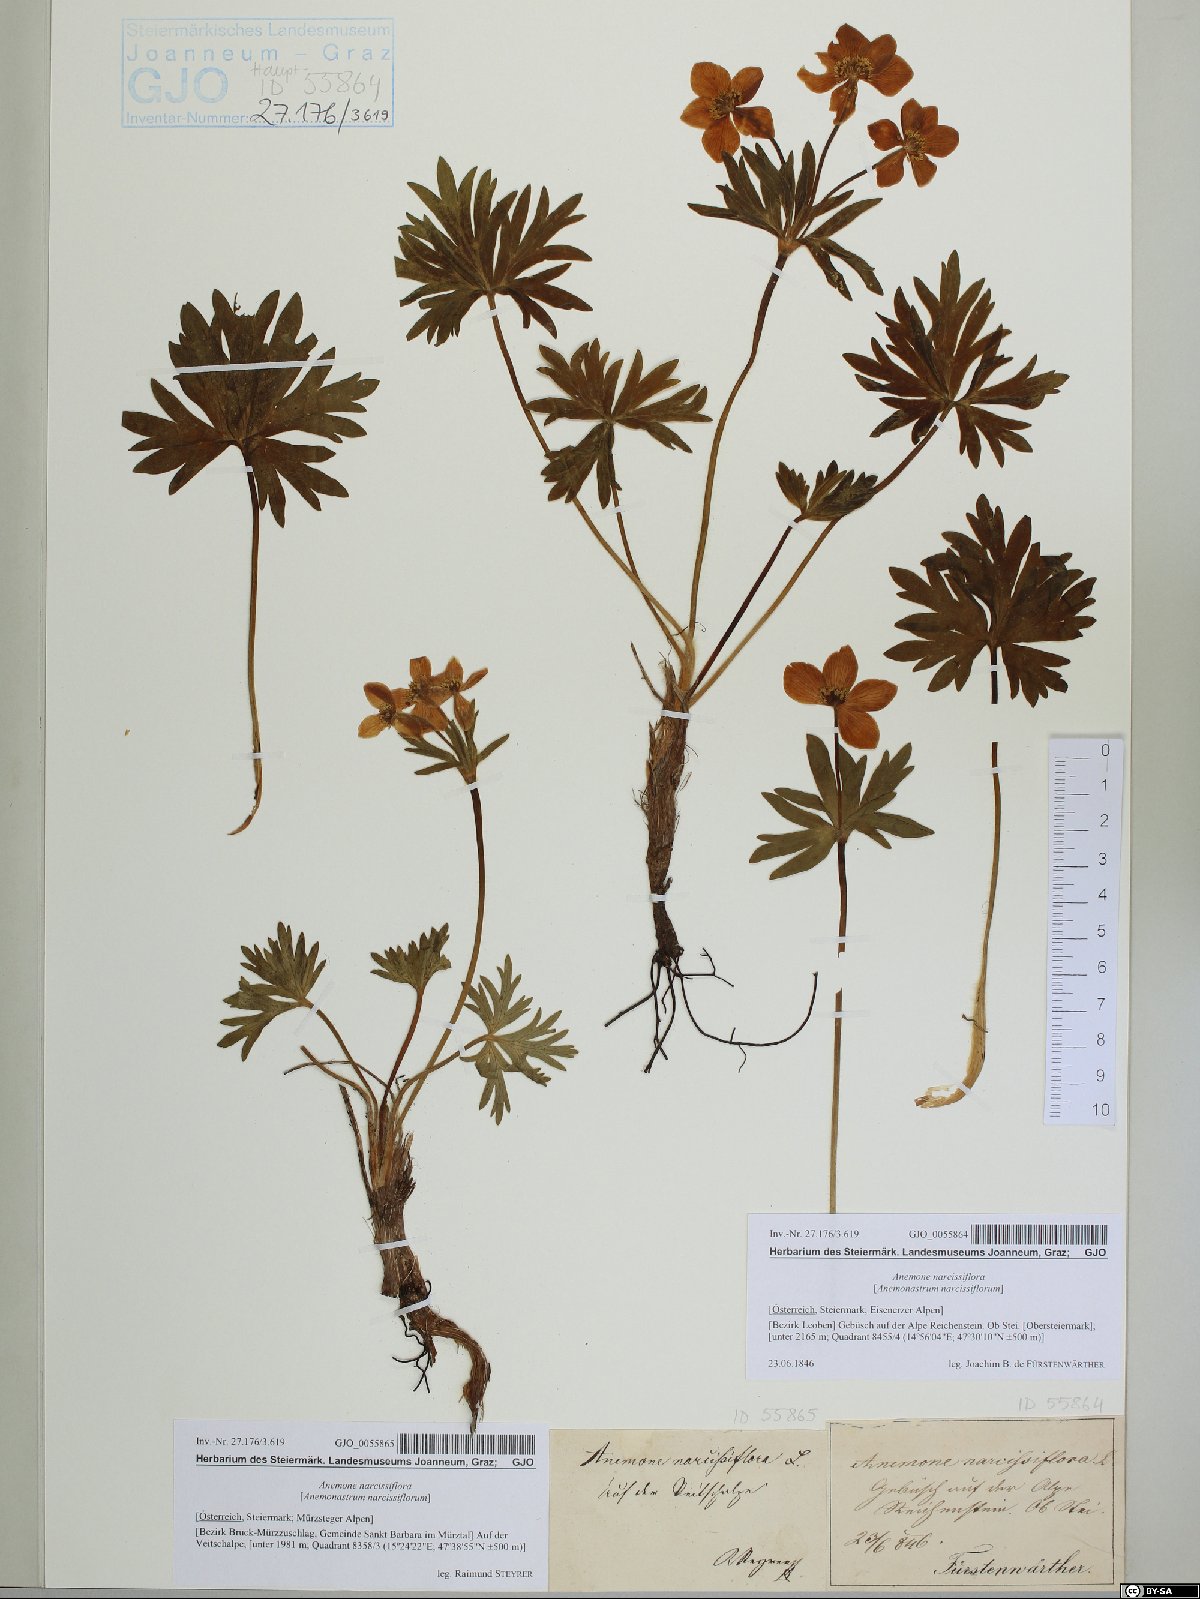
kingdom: Plantae
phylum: Tracheophyta
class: Magnoliopsida
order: Ranunculales
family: Ranunculaceae
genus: Anemonastrum
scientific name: Anemonastrum narcissiflorum
